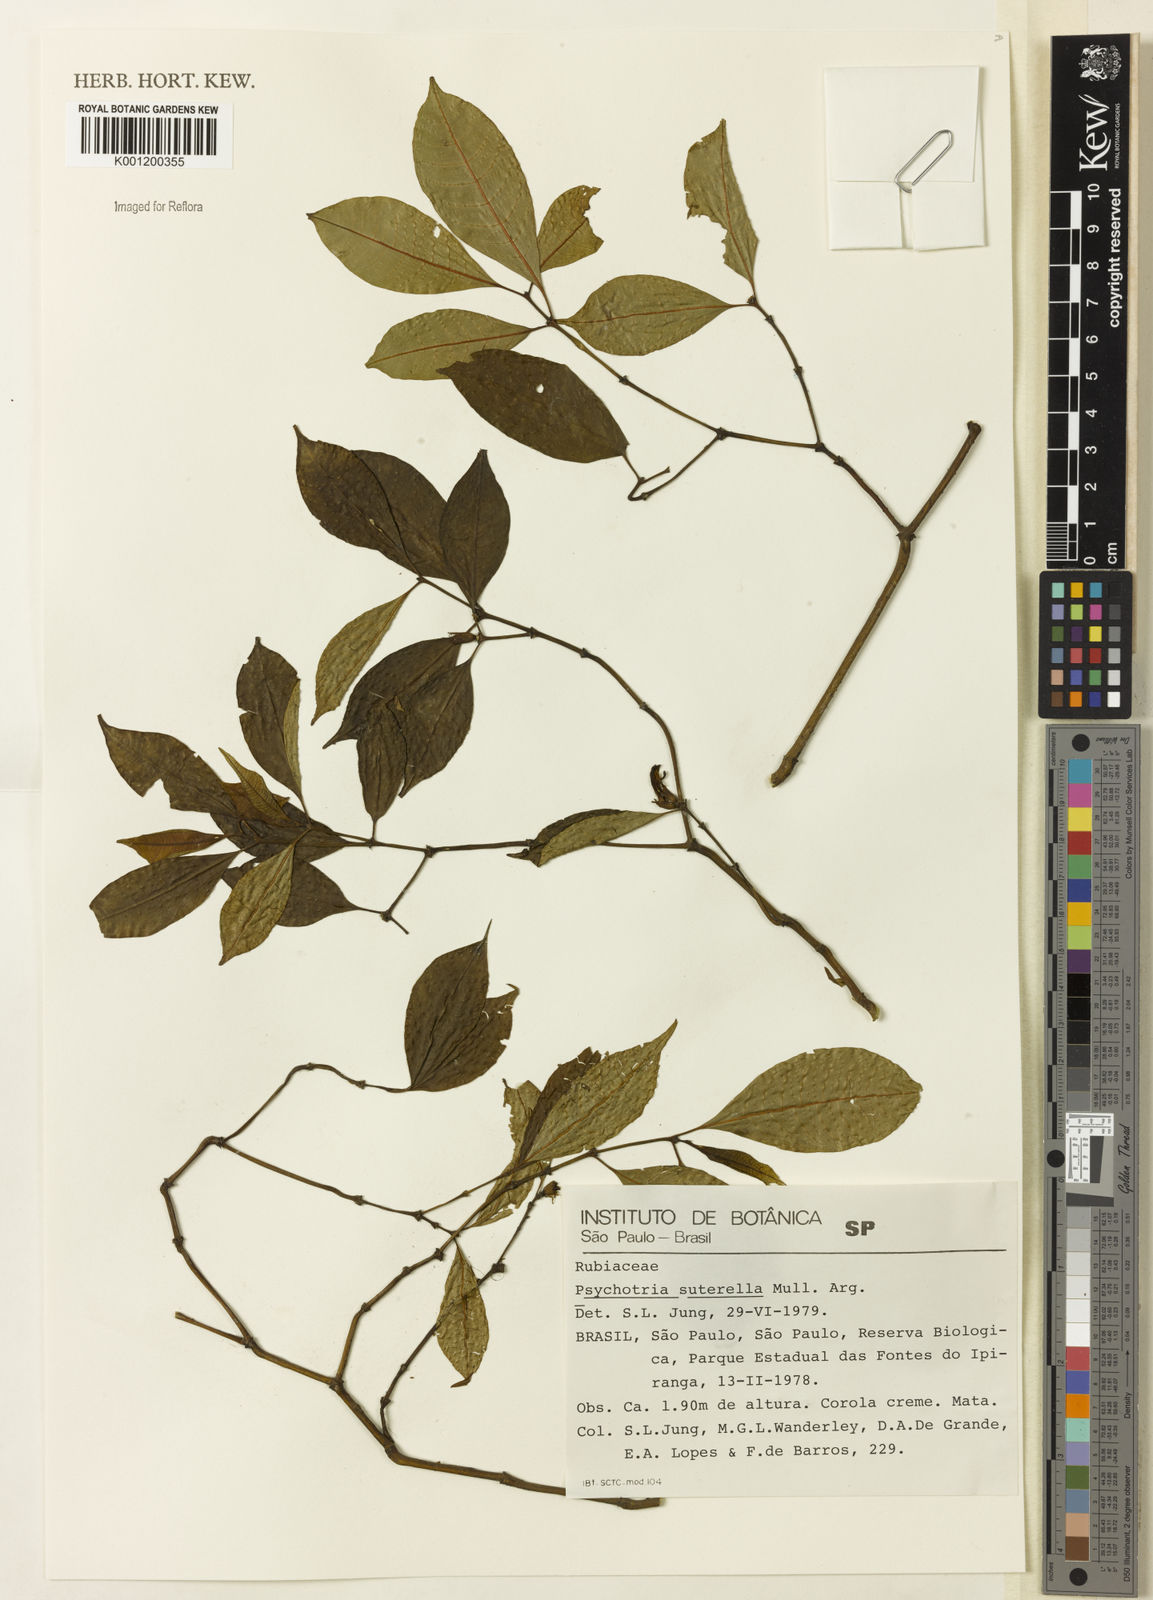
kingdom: Plantae
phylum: Tracheophyta
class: Magnoliopsida
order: Gentianales
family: Rubiaceae
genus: Psychotria
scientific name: Psychotria
